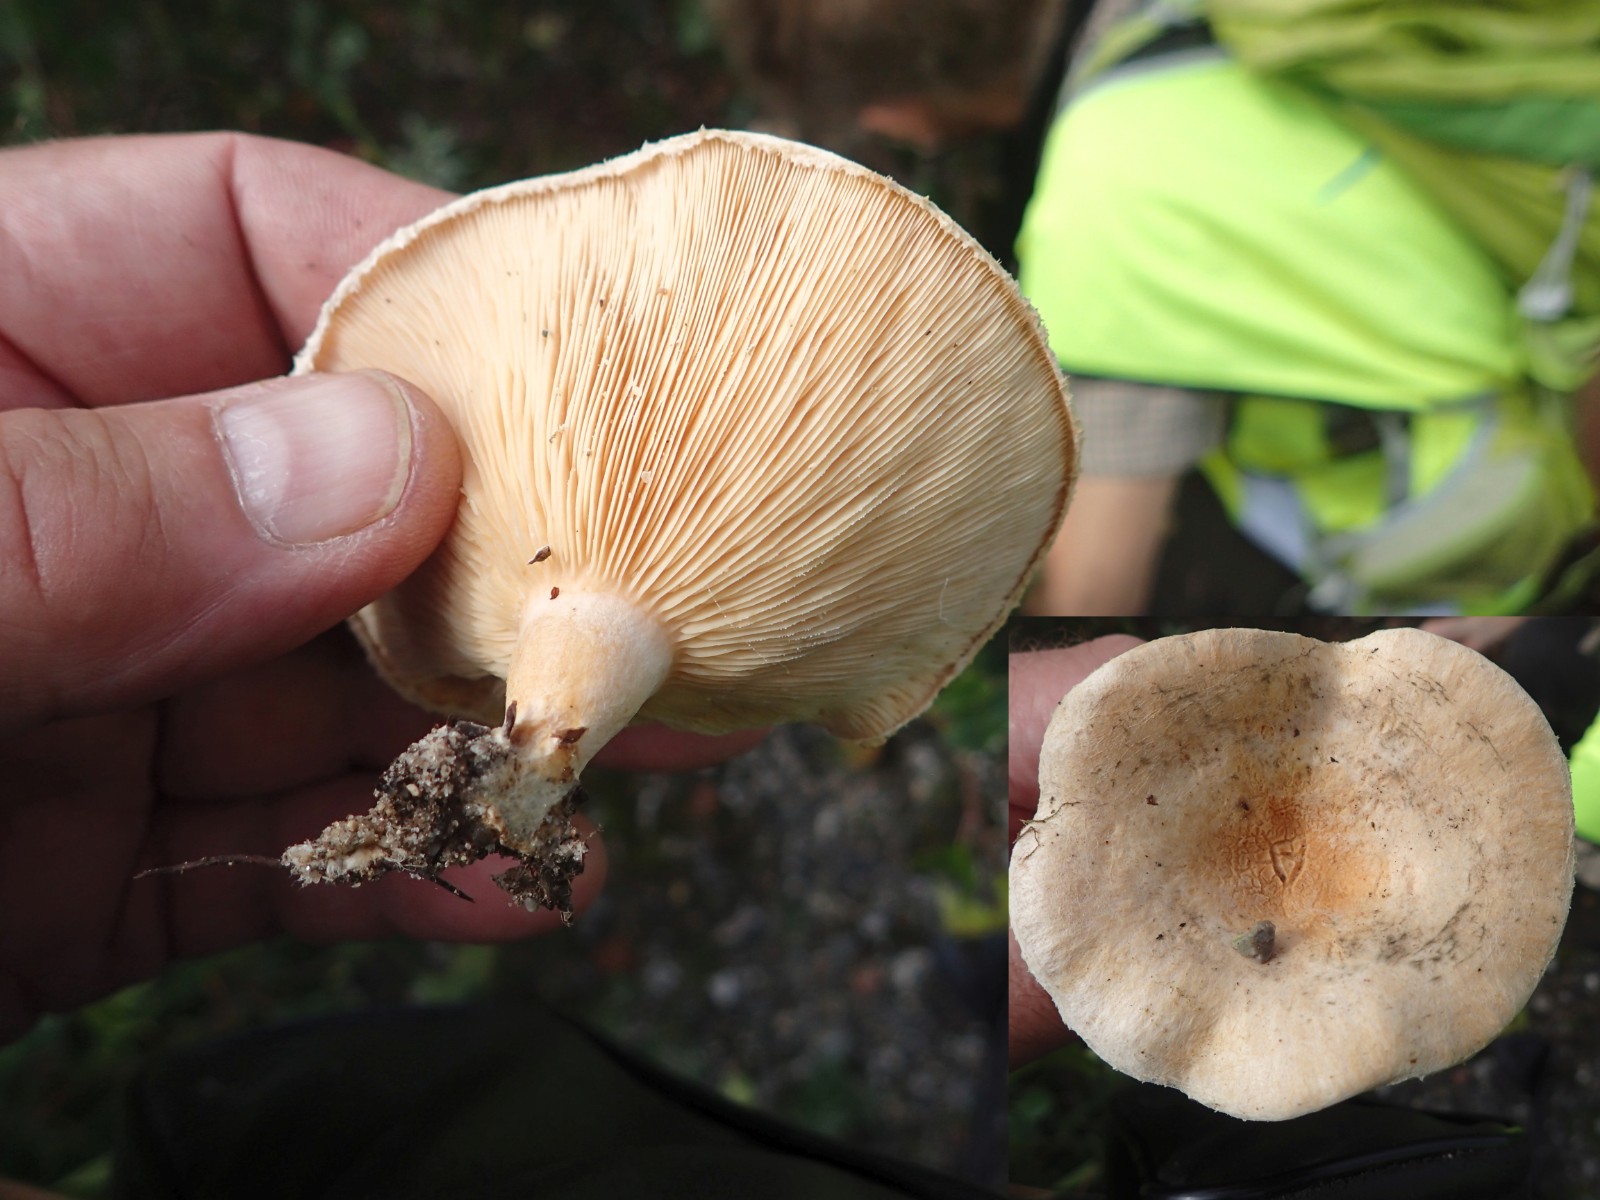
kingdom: Fungi
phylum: Basidiomycota
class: Agaricomycetes
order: Russulales
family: Russulaceae
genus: Lactarius
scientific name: Lactarius pubescens
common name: dunet mælkehat
